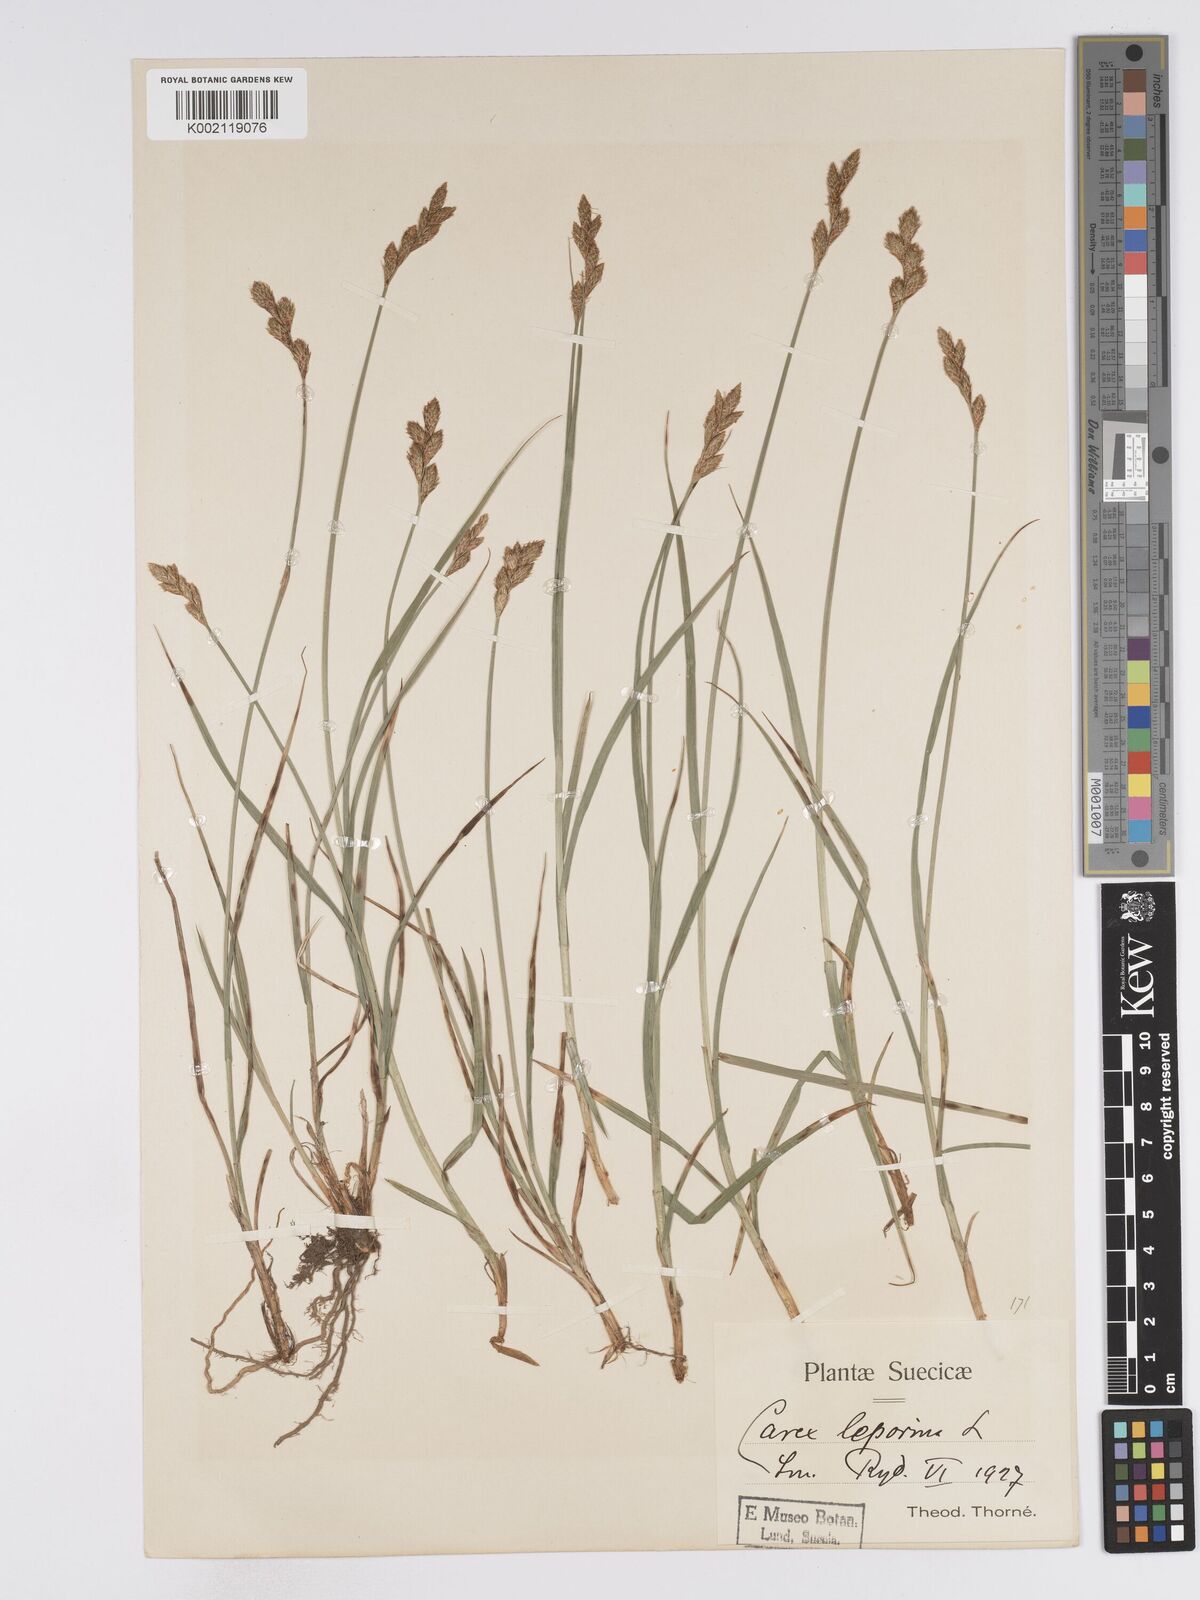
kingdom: Plantae
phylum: Tracheophyta
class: Liliopsida
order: Poales
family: Cyperaceae
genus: Carex
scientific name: Carex leporina
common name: Oval sedge
